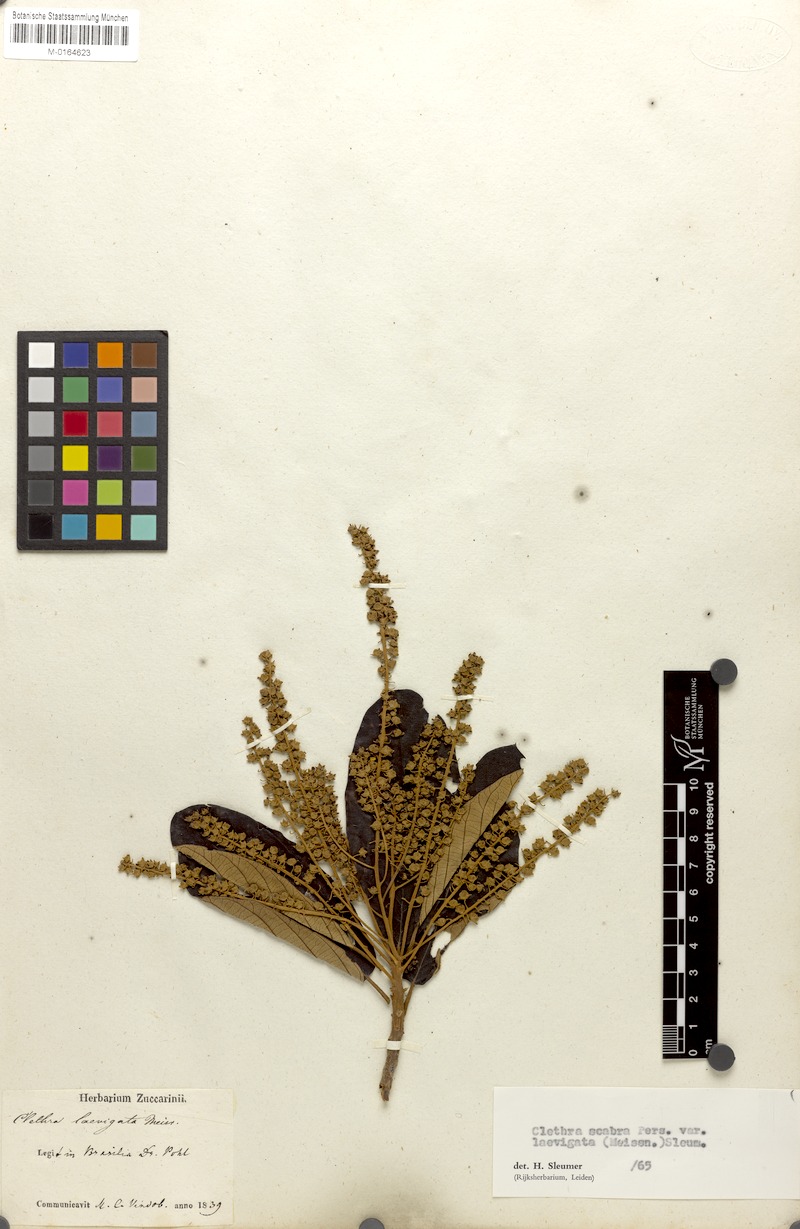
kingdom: Plantae
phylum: Tracheophyta
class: Magnoliopsida
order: Ericales
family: Clethraceae
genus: Clethra
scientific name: Clethra scabra
